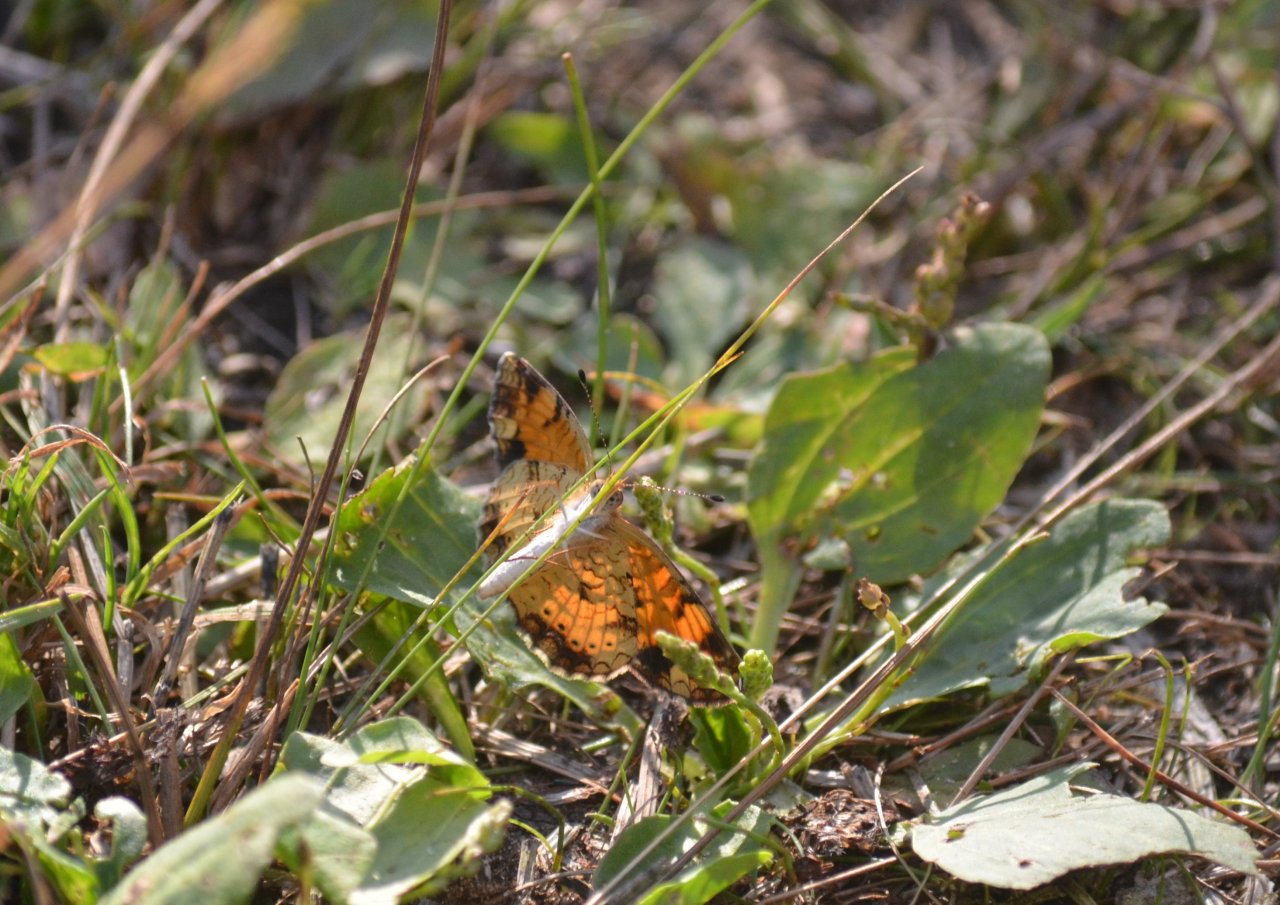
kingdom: Animalia
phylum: Arthropoda
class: Insecta
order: Lepidoptera
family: Nymphalidae
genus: Phyciodes
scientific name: Phyciodes tharos
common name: Northern Crescent
